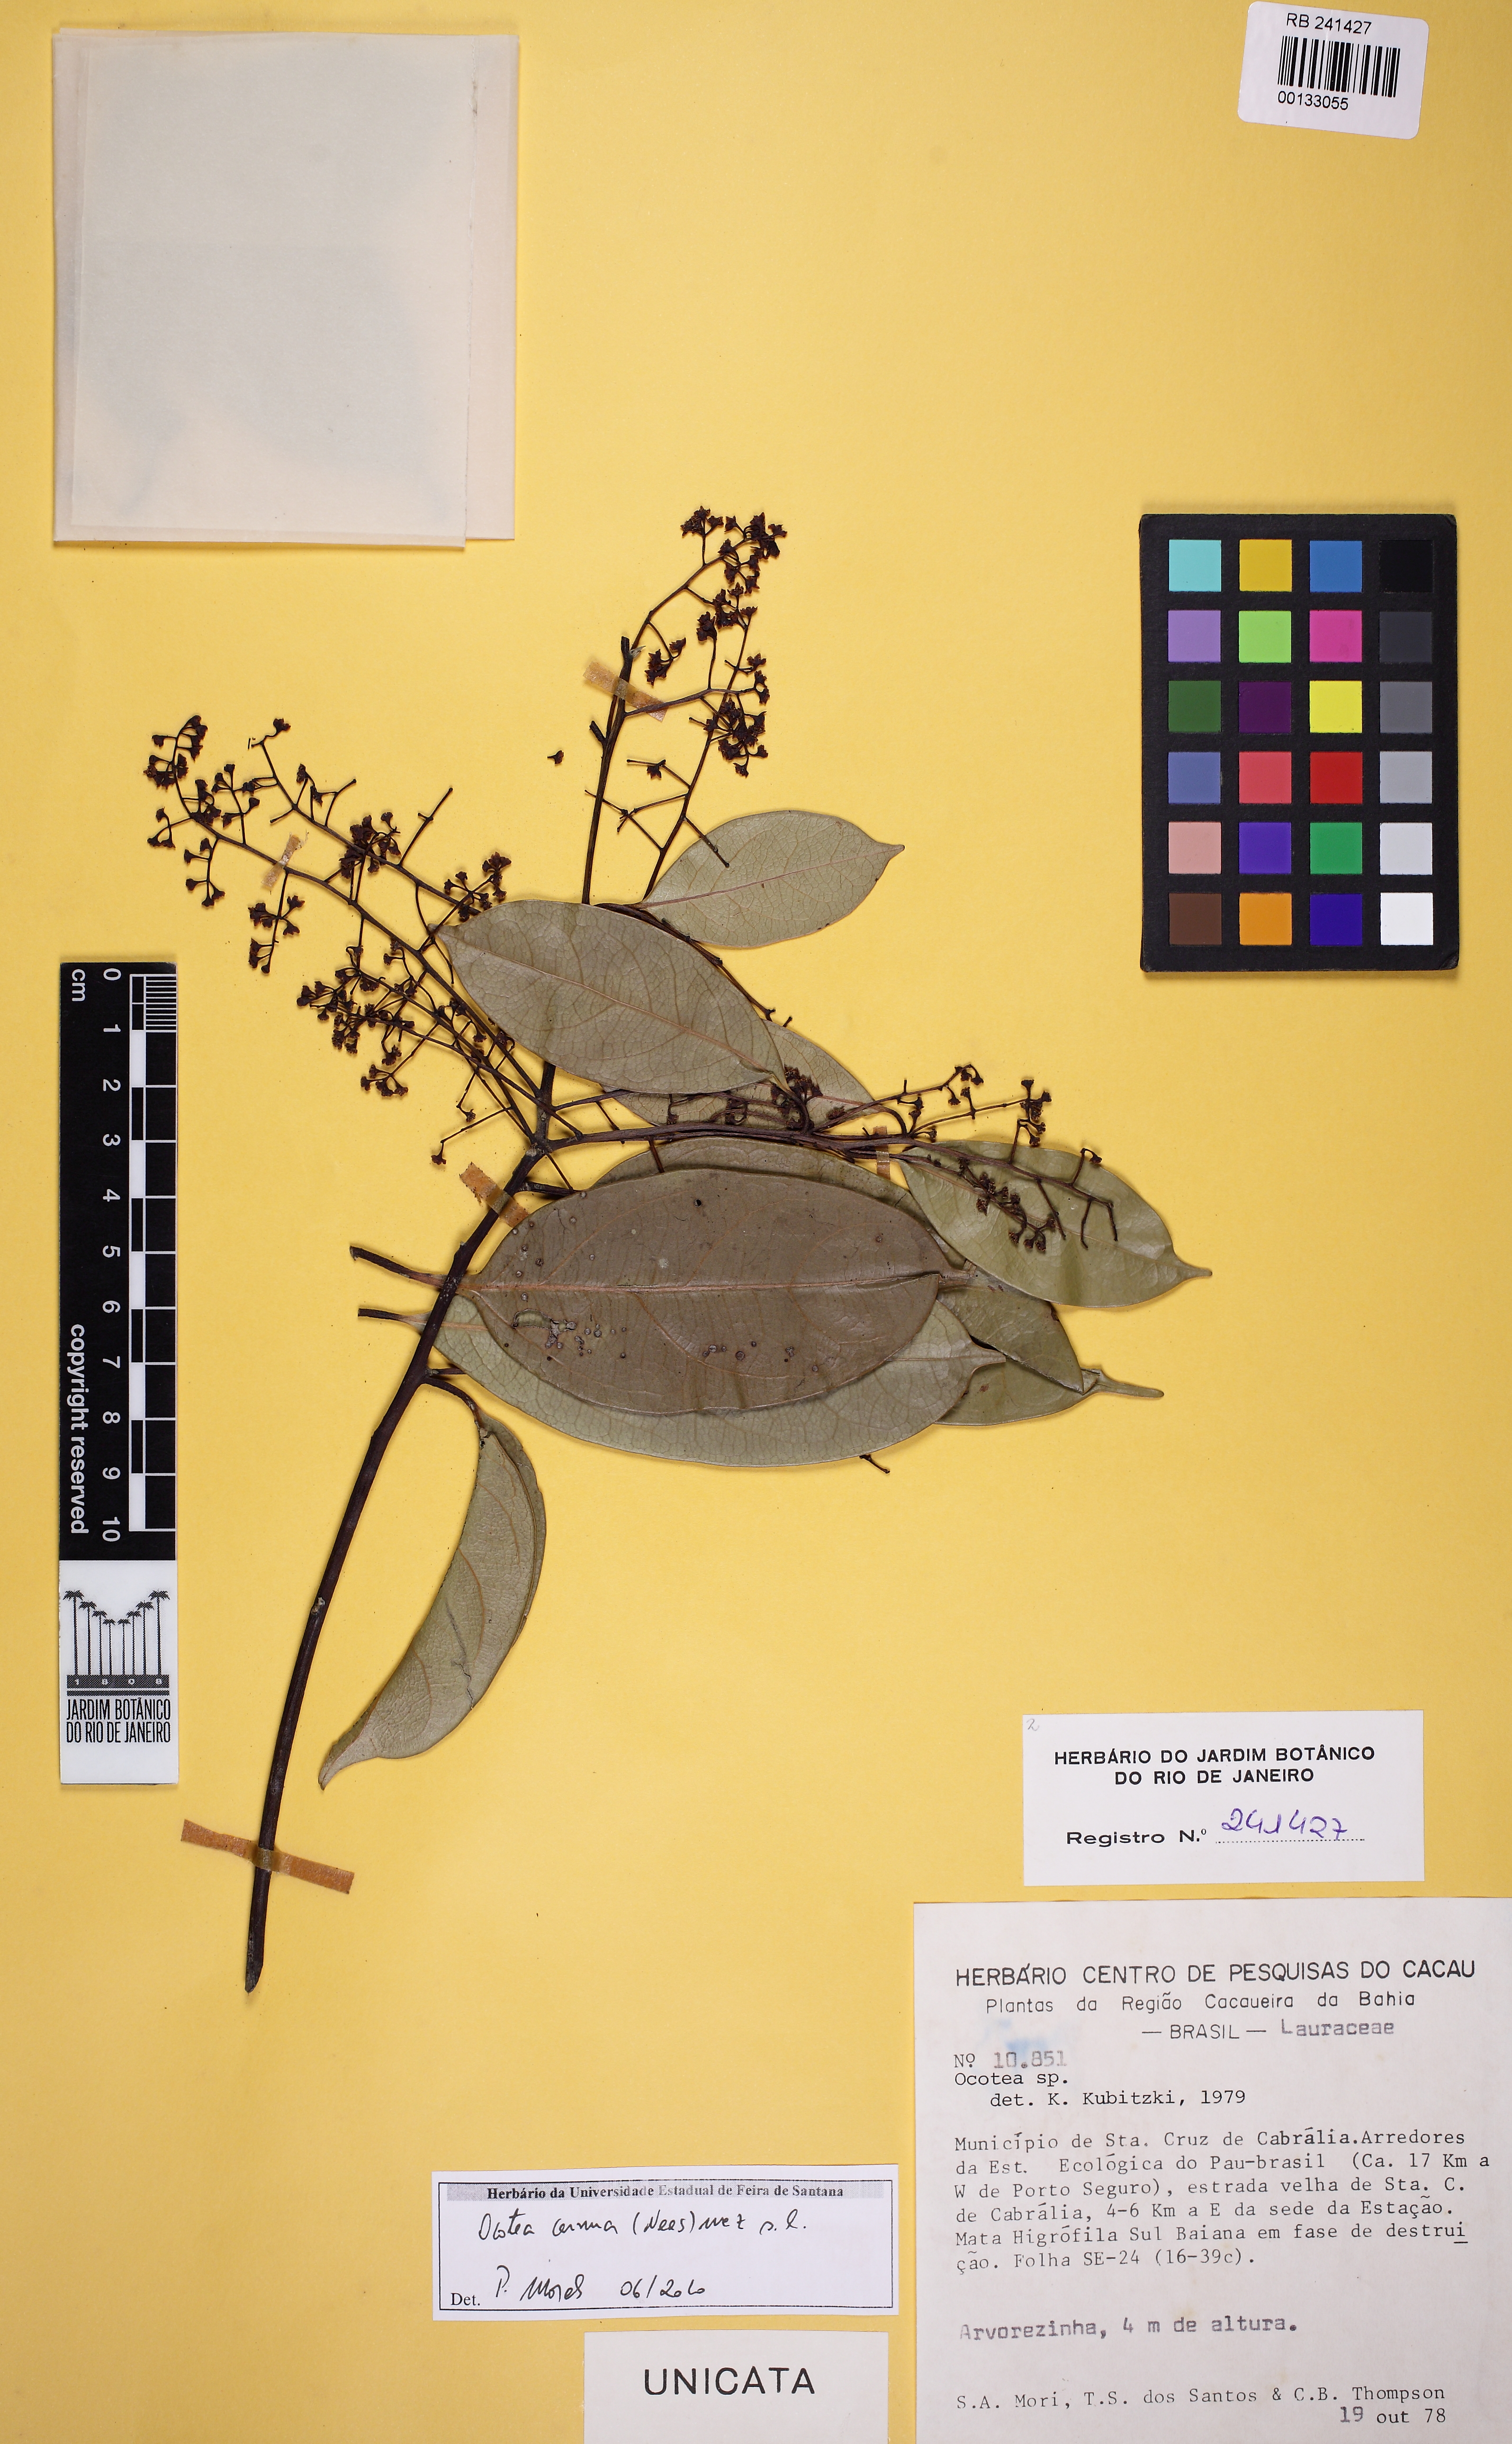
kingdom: Plantae
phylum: Tracheophyta
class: Magnoliopsida
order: Laurales
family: Lauraceae
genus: Ocotea
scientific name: Ocotea leptobotra
